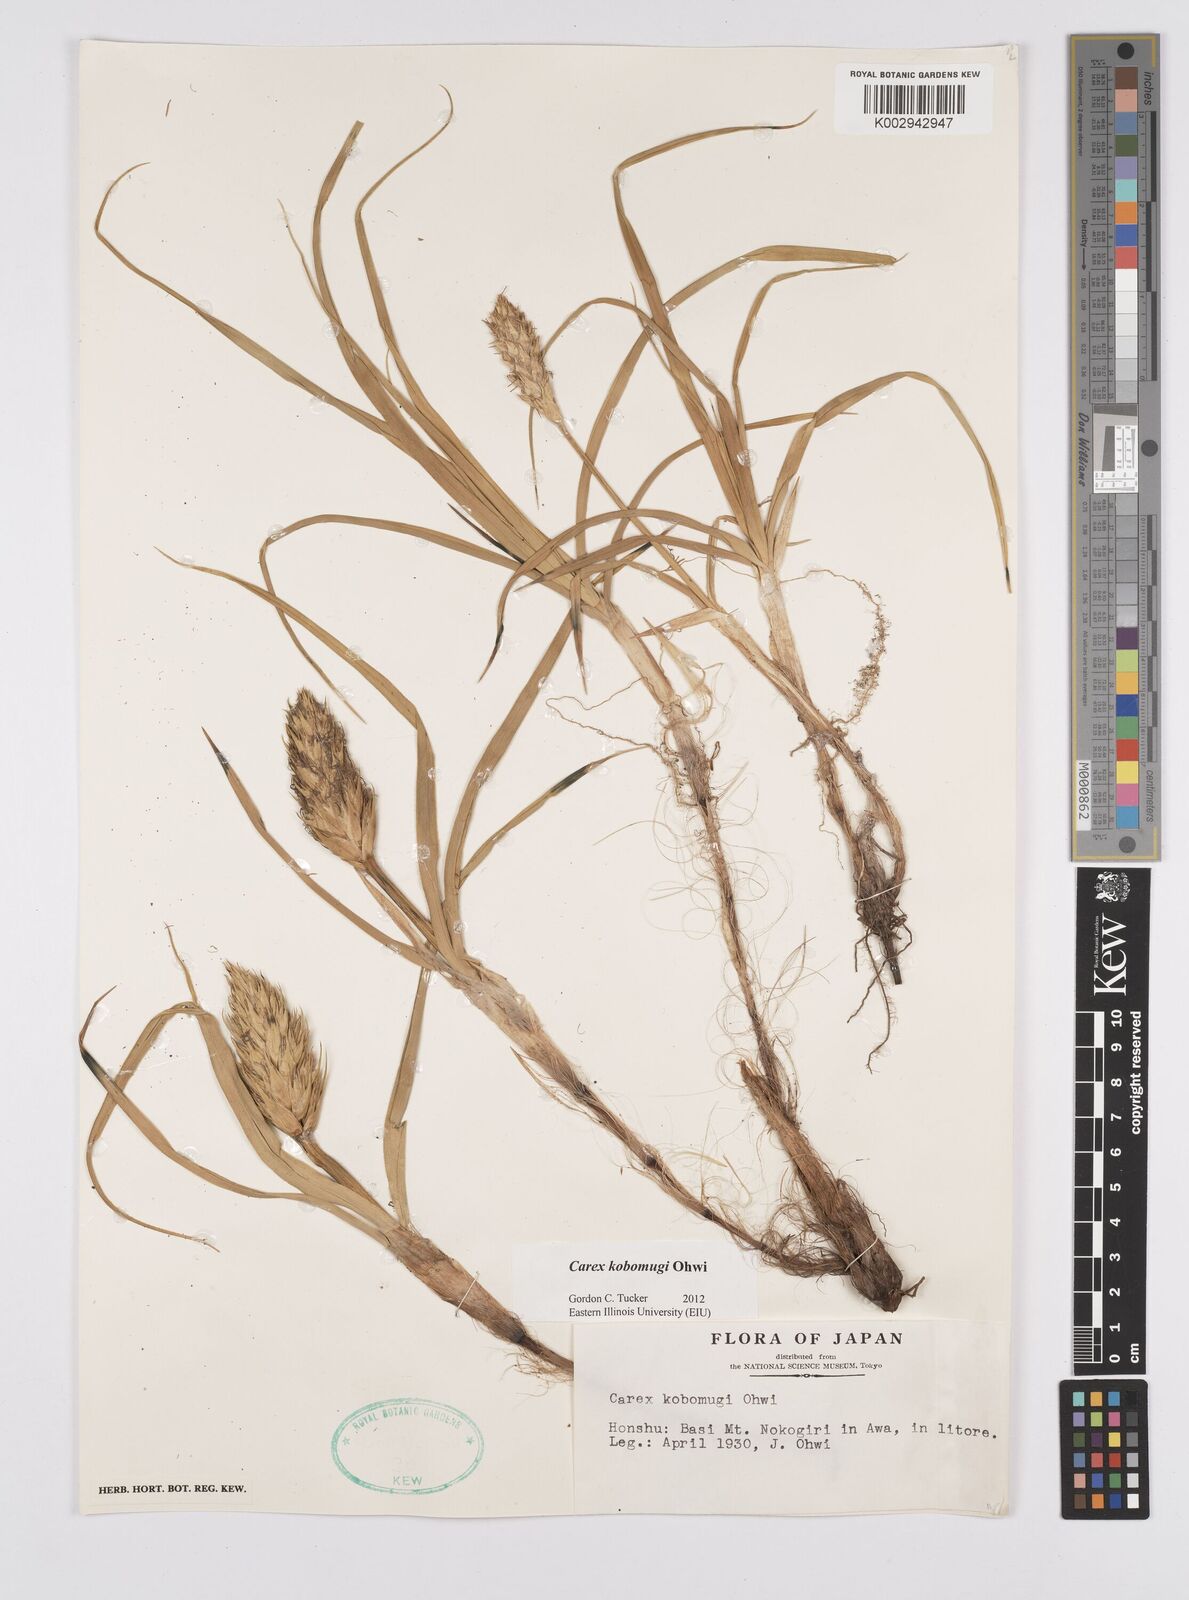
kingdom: Plantae
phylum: Tracheophyta
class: Liliopsida
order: Poales
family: Cyperaceae
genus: Carex
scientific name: Carex kobomugi
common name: Japanese sedge
